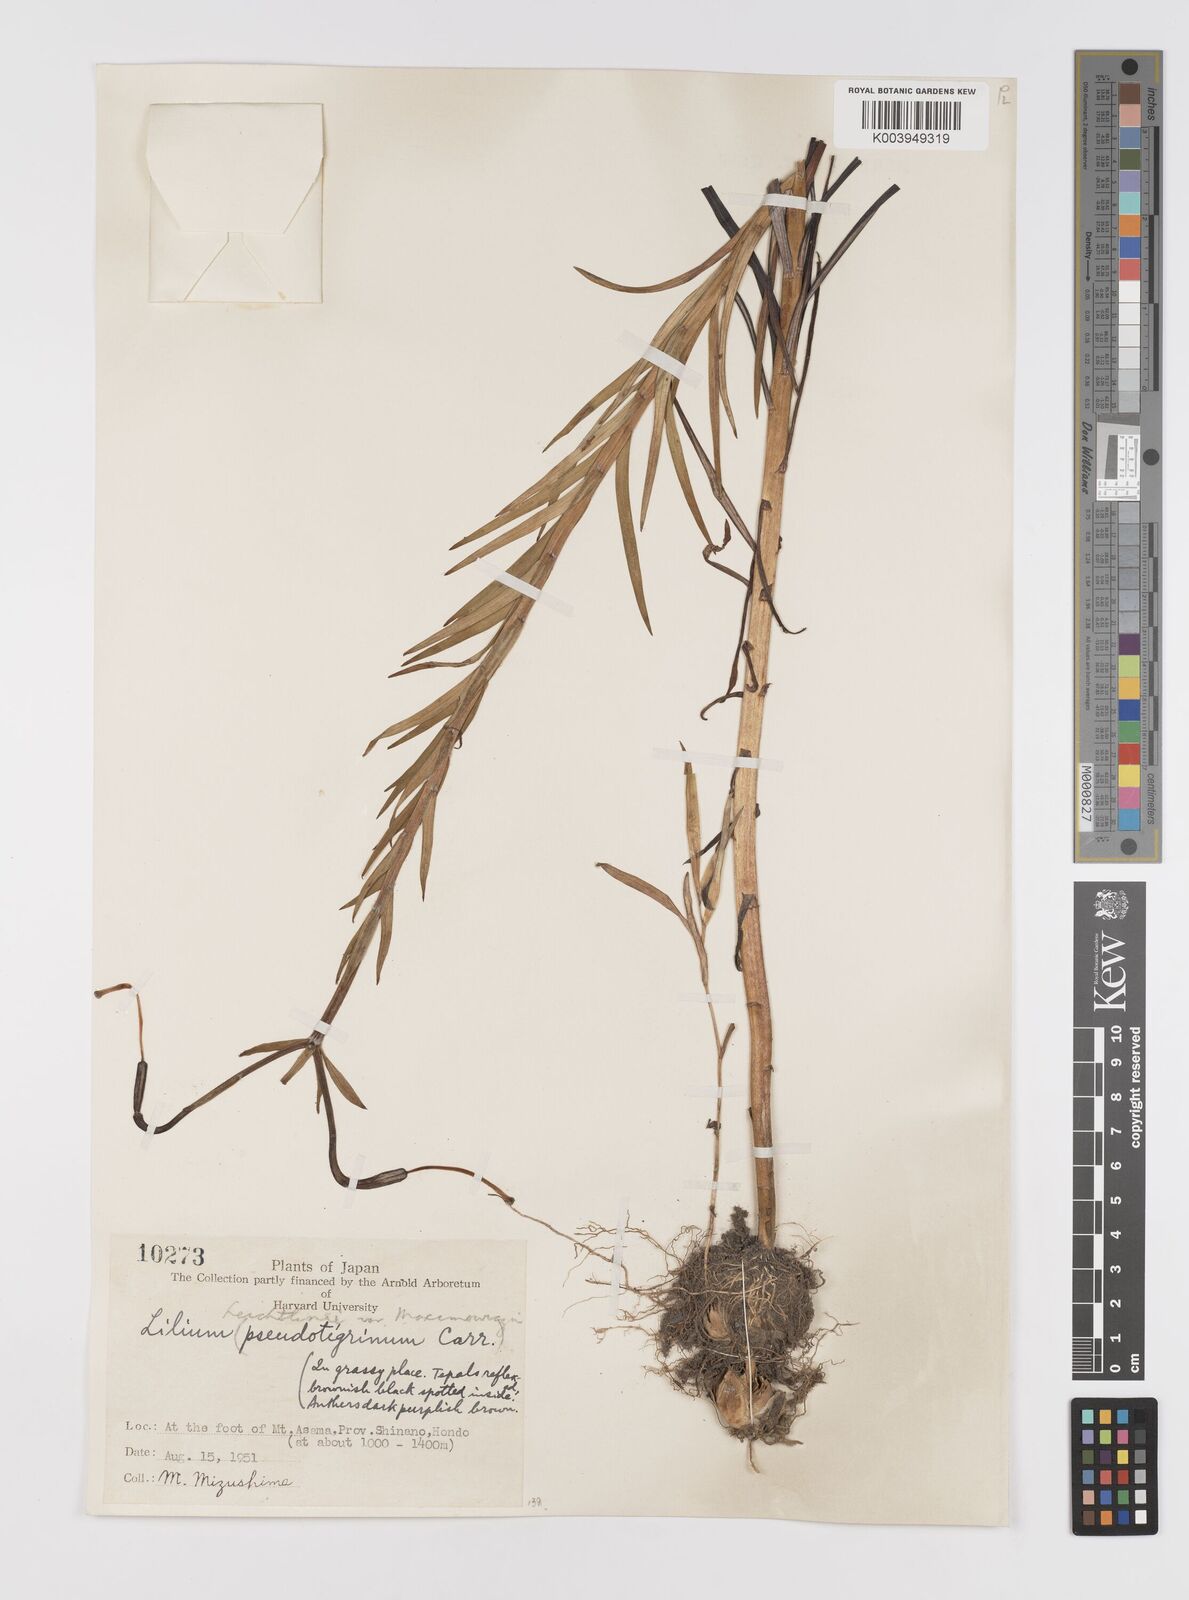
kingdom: Plantae
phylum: Tracheophyta
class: Liliopsida
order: Liliales
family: Liliaceae
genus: Lilium
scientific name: Lilium leichtlinii
